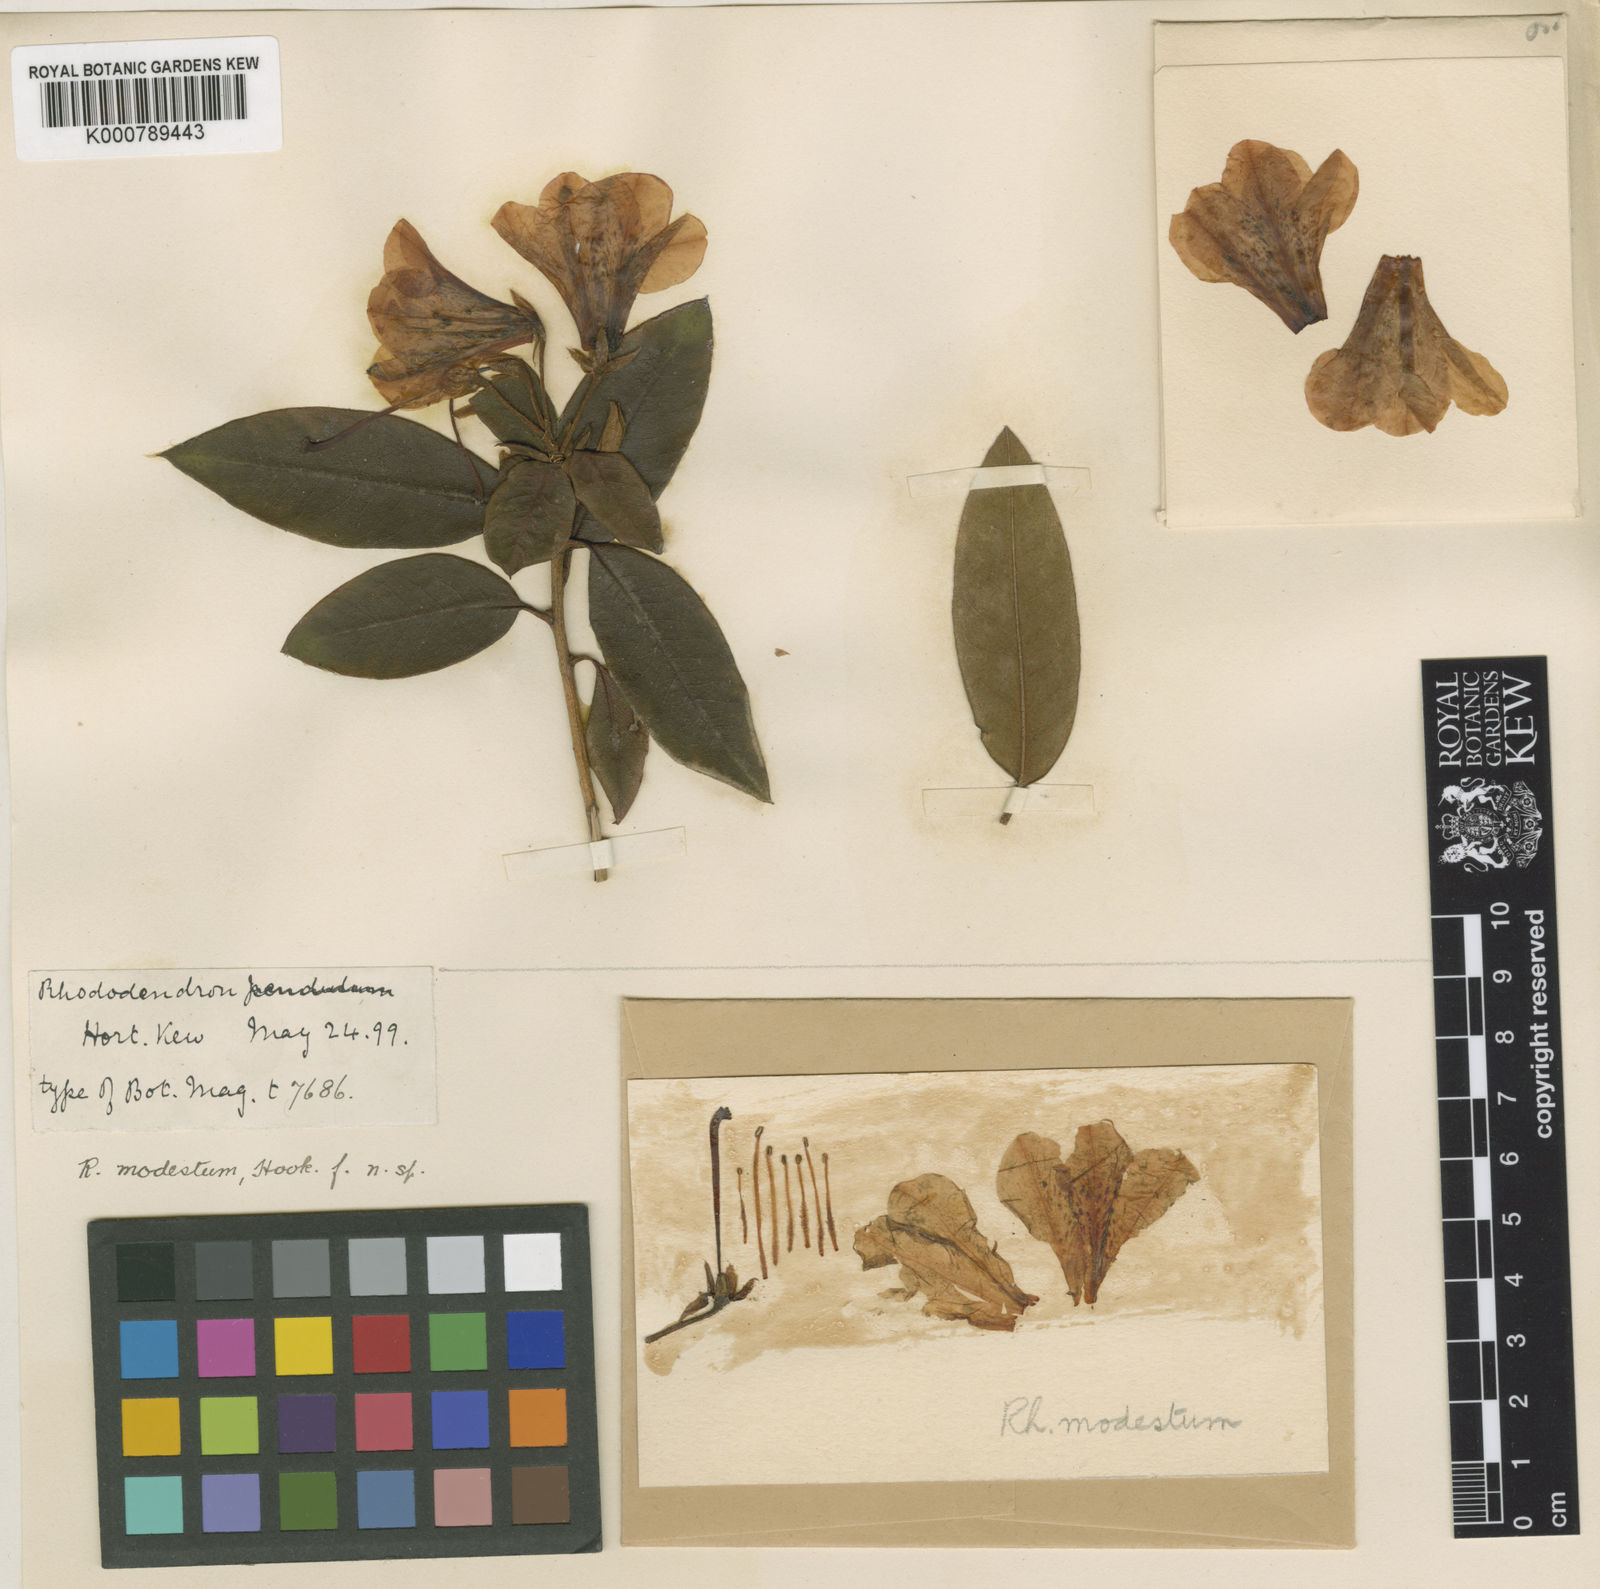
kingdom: Plantae
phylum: Tracheophyta
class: Magnoliopsida
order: Ericales
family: Ericaceae
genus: Rhododendron
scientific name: Rhododendron
